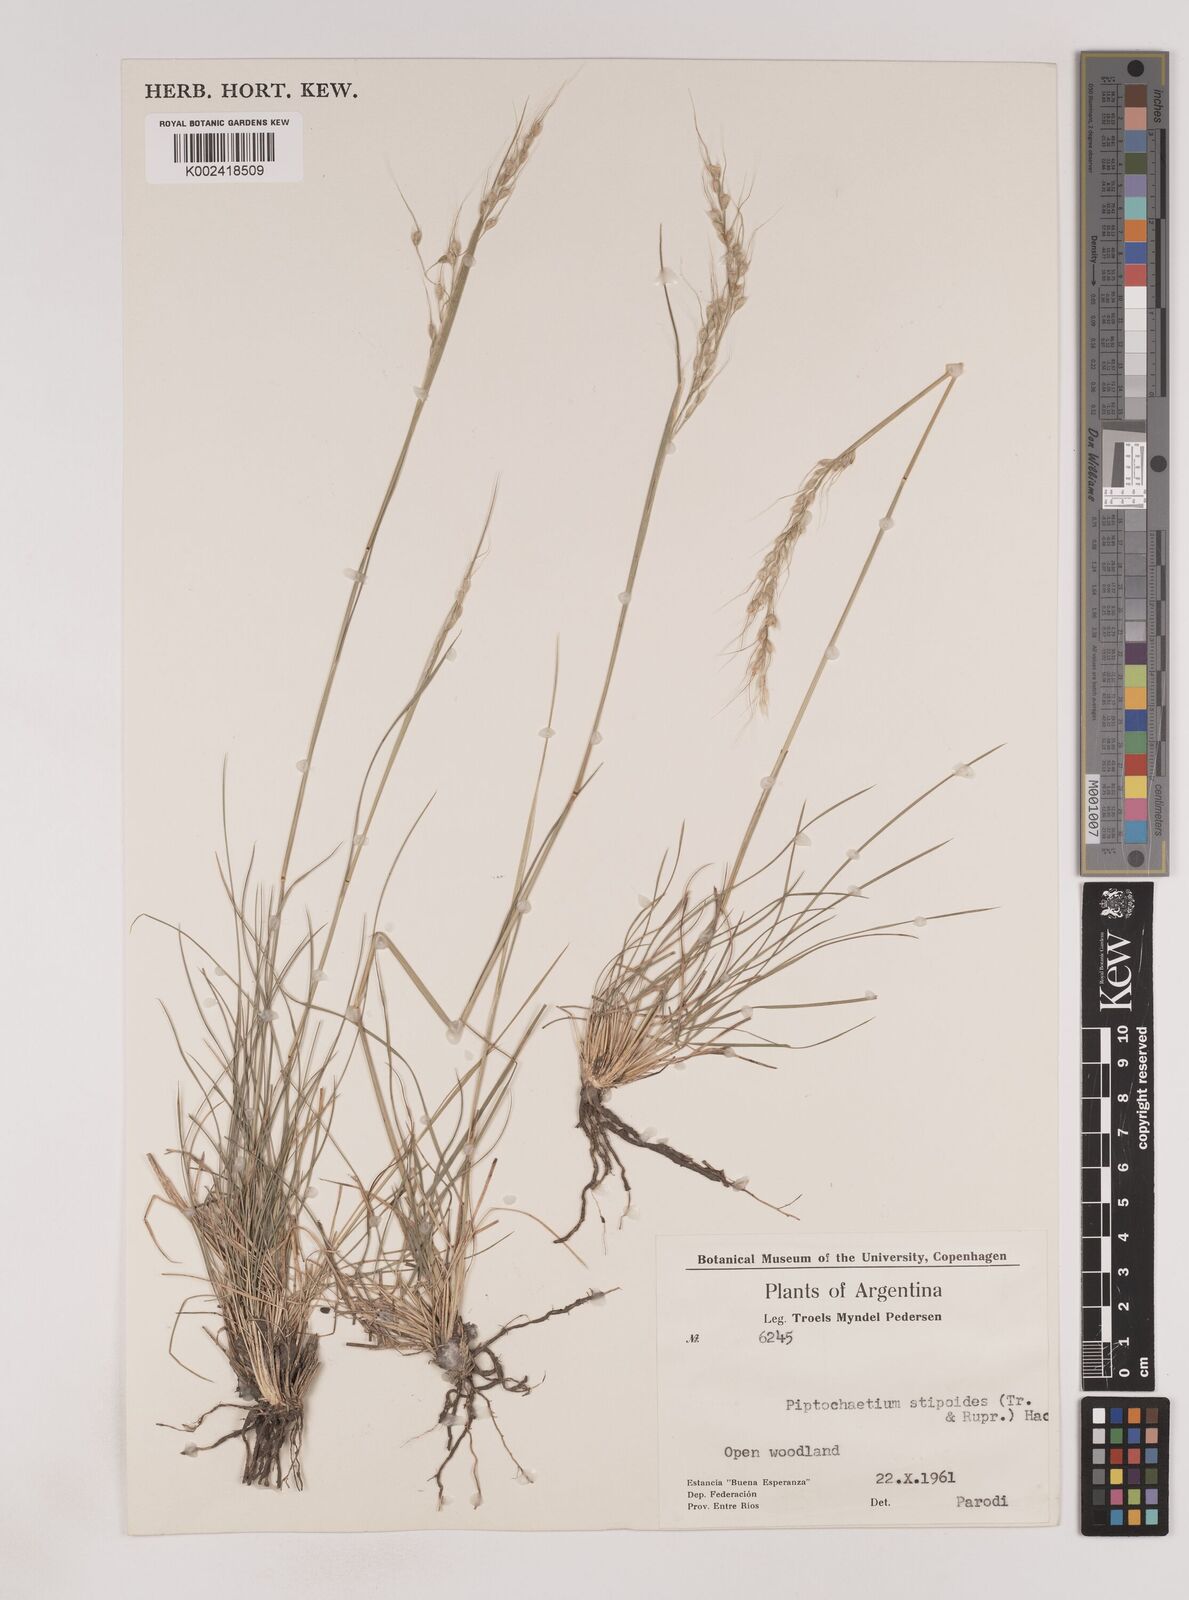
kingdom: Plantae
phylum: Tracheophyta
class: Liliopsida
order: Poales
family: Poaceae
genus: Piptochaetium
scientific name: Piptochaetium stipoides
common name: Purple speargrass
